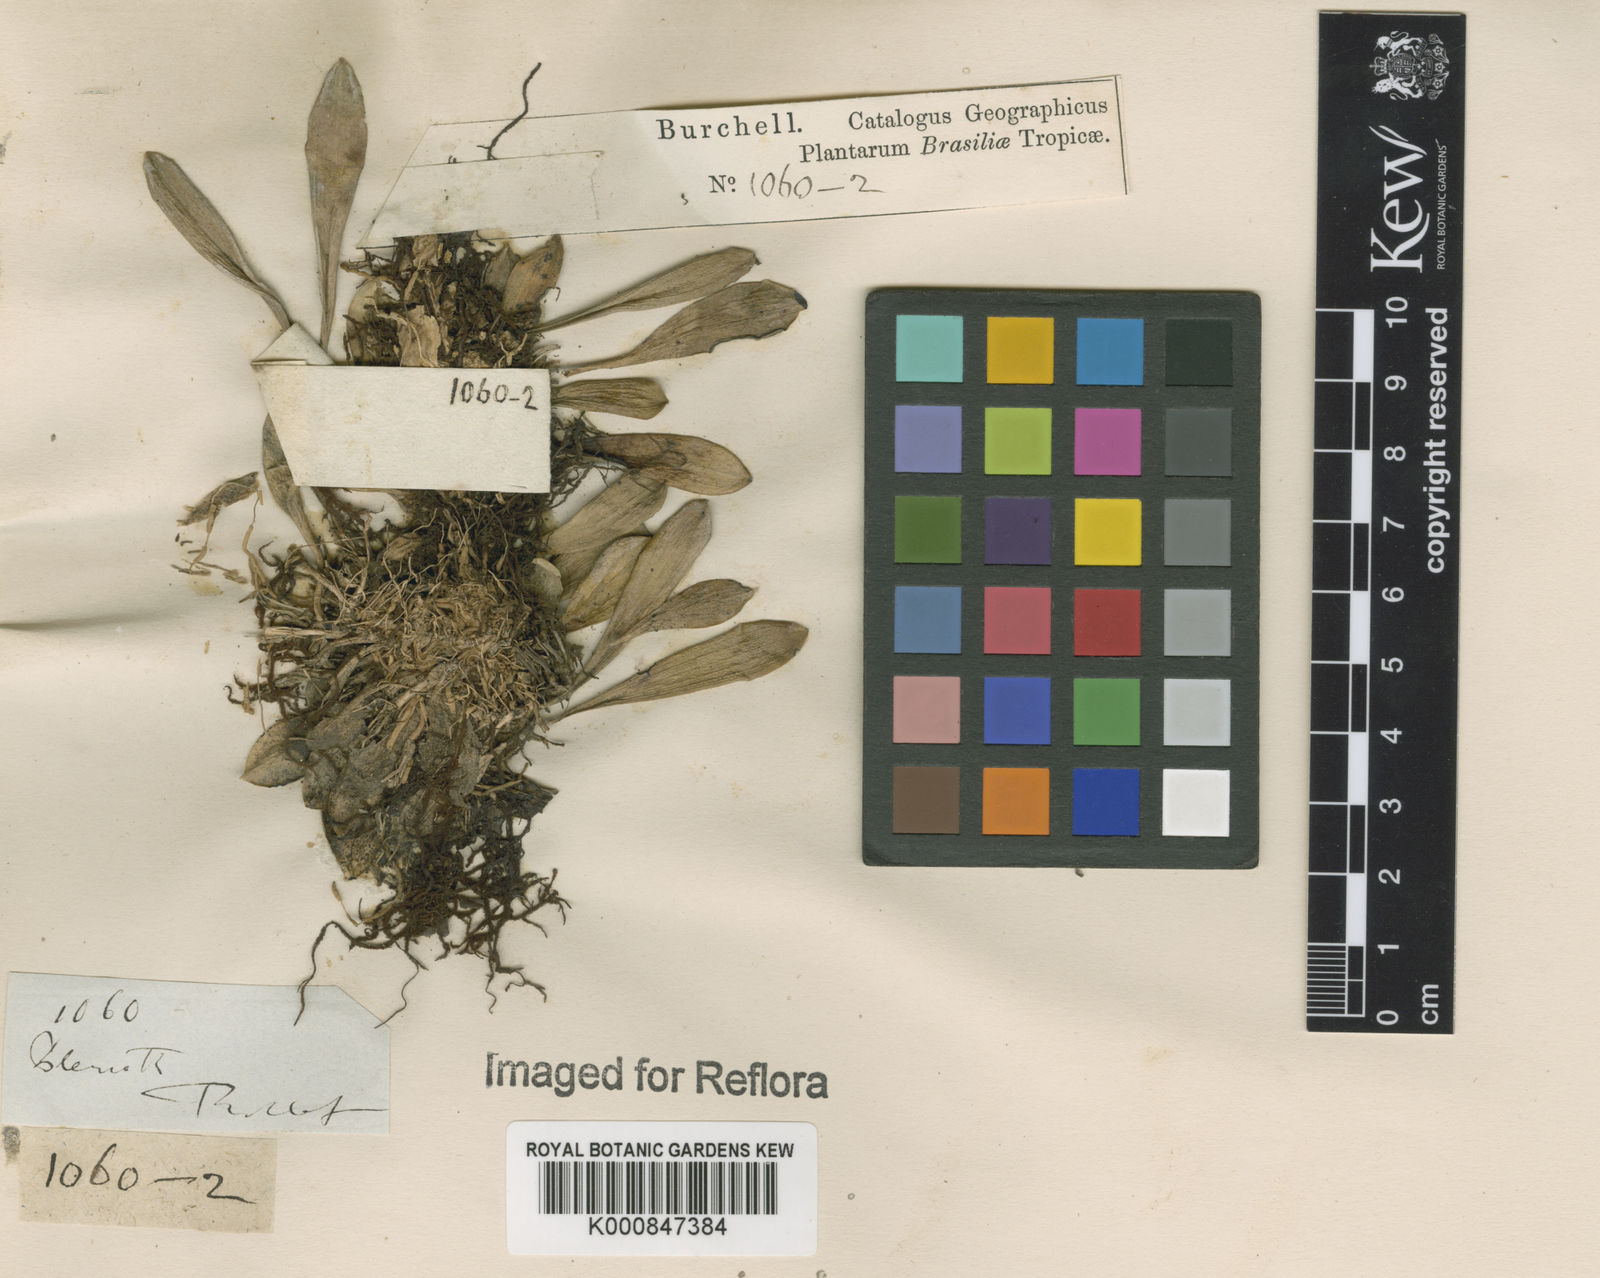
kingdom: Plantae
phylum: Tracheophyta
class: Liliopsida
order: Asparagales
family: Orchidaceae
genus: Pleurothallis
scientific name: Pleurothallis
